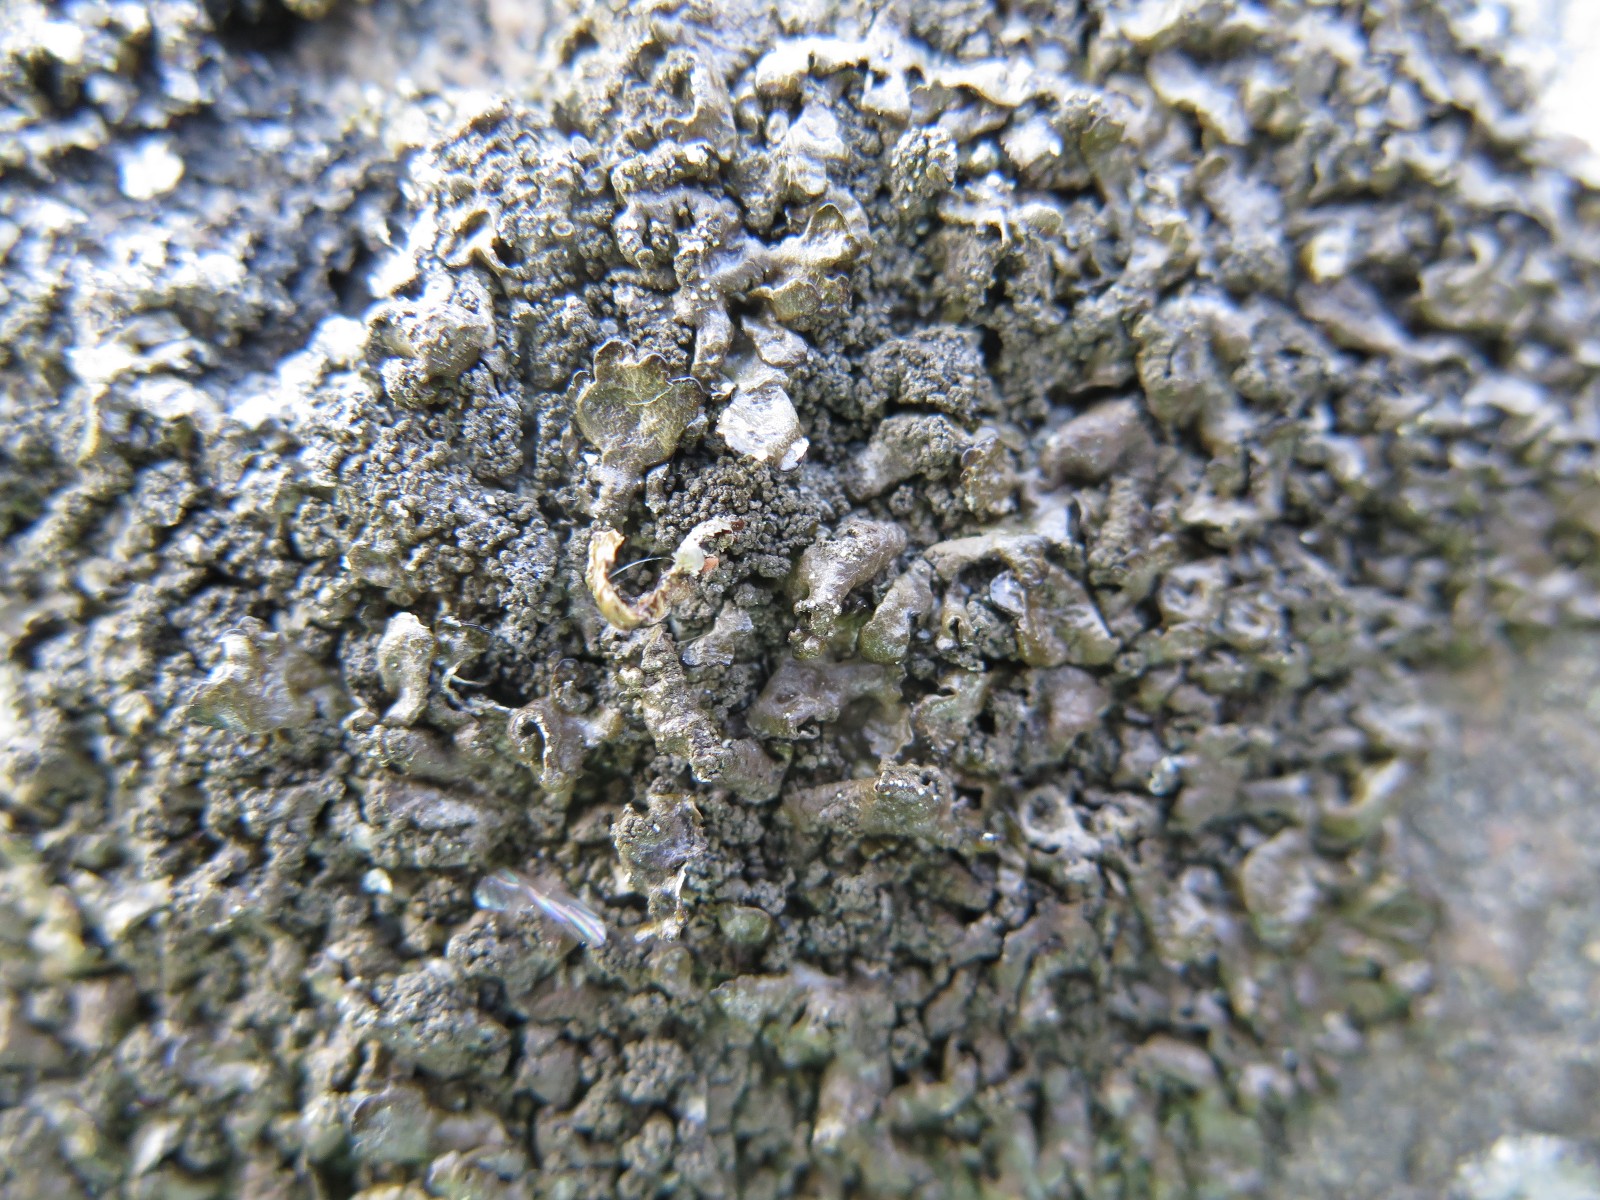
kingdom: Fungi
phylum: Ascomycota
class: Lecanoromycetes
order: Lecanorales
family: Parmeliaceae
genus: Xanthoparmelia
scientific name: Xanthoparmelia verruculifera
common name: småknoppet skållav
